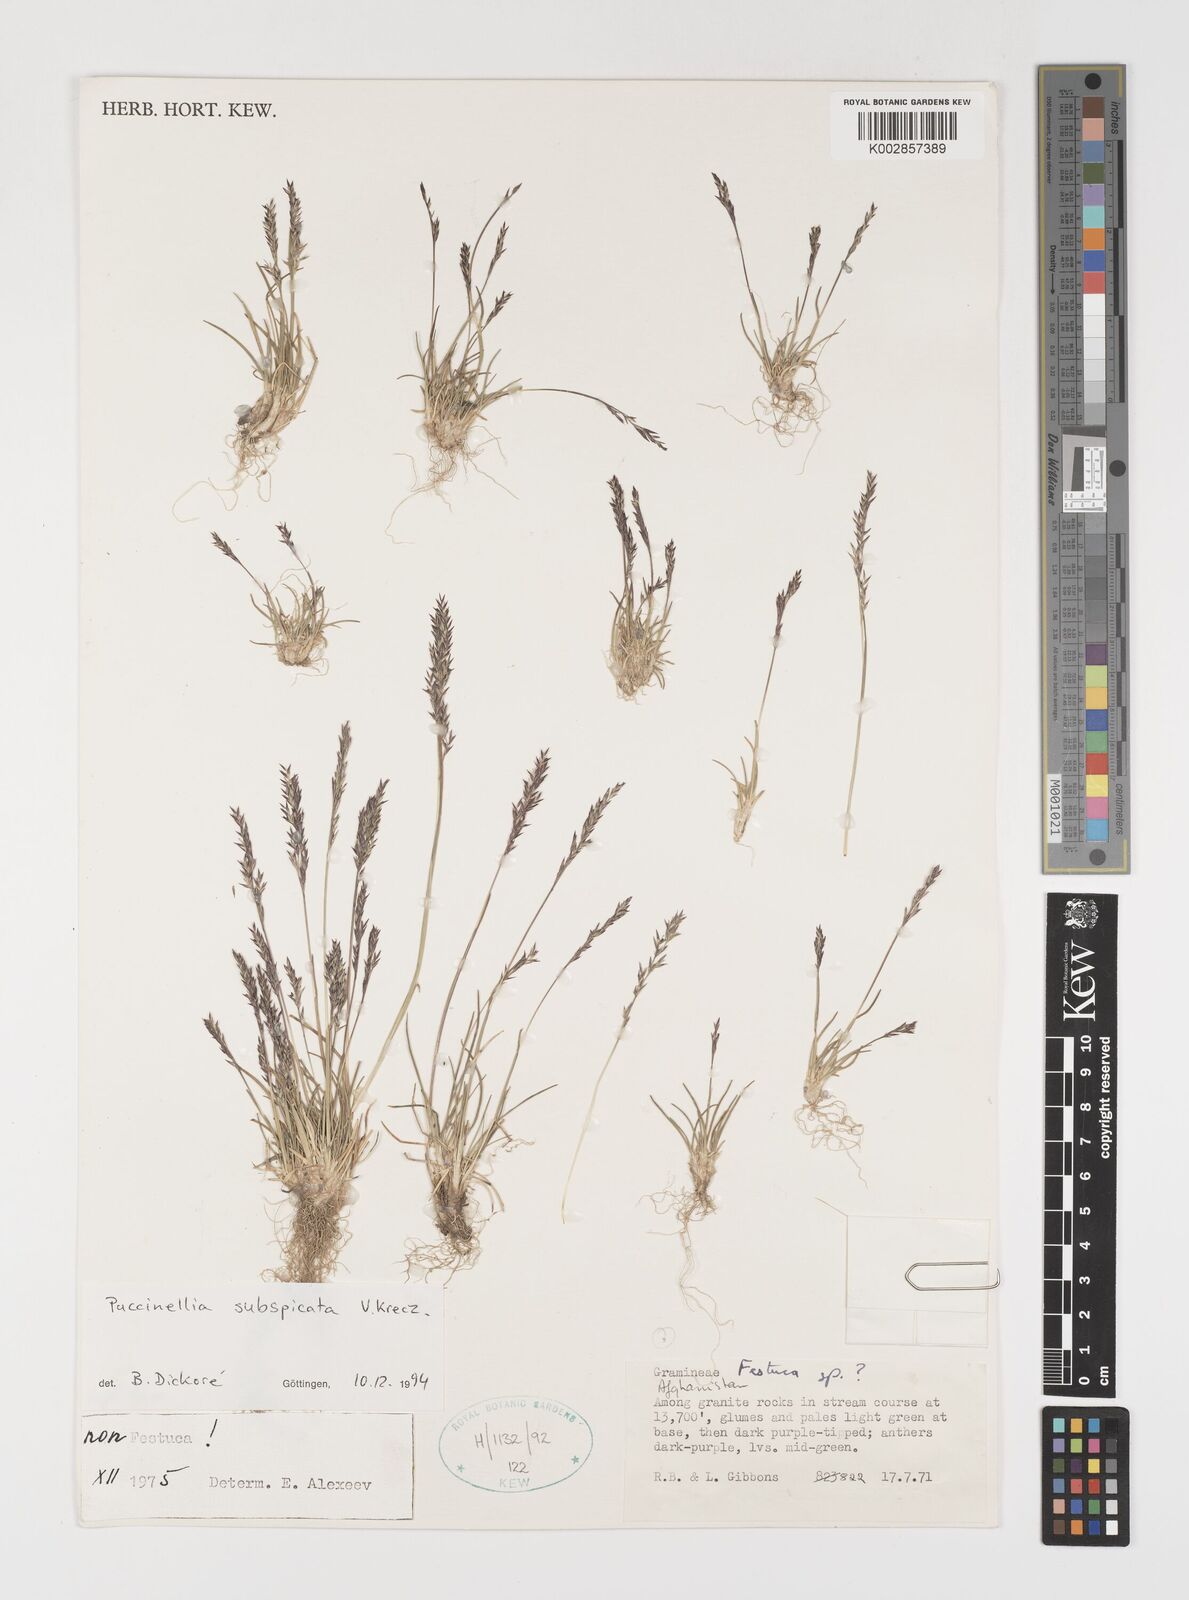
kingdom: Plantae
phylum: Tracheophyta
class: Liliopsida
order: Poales
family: Poaceae
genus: Puccinellia
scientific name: Puccinellia subspicata
